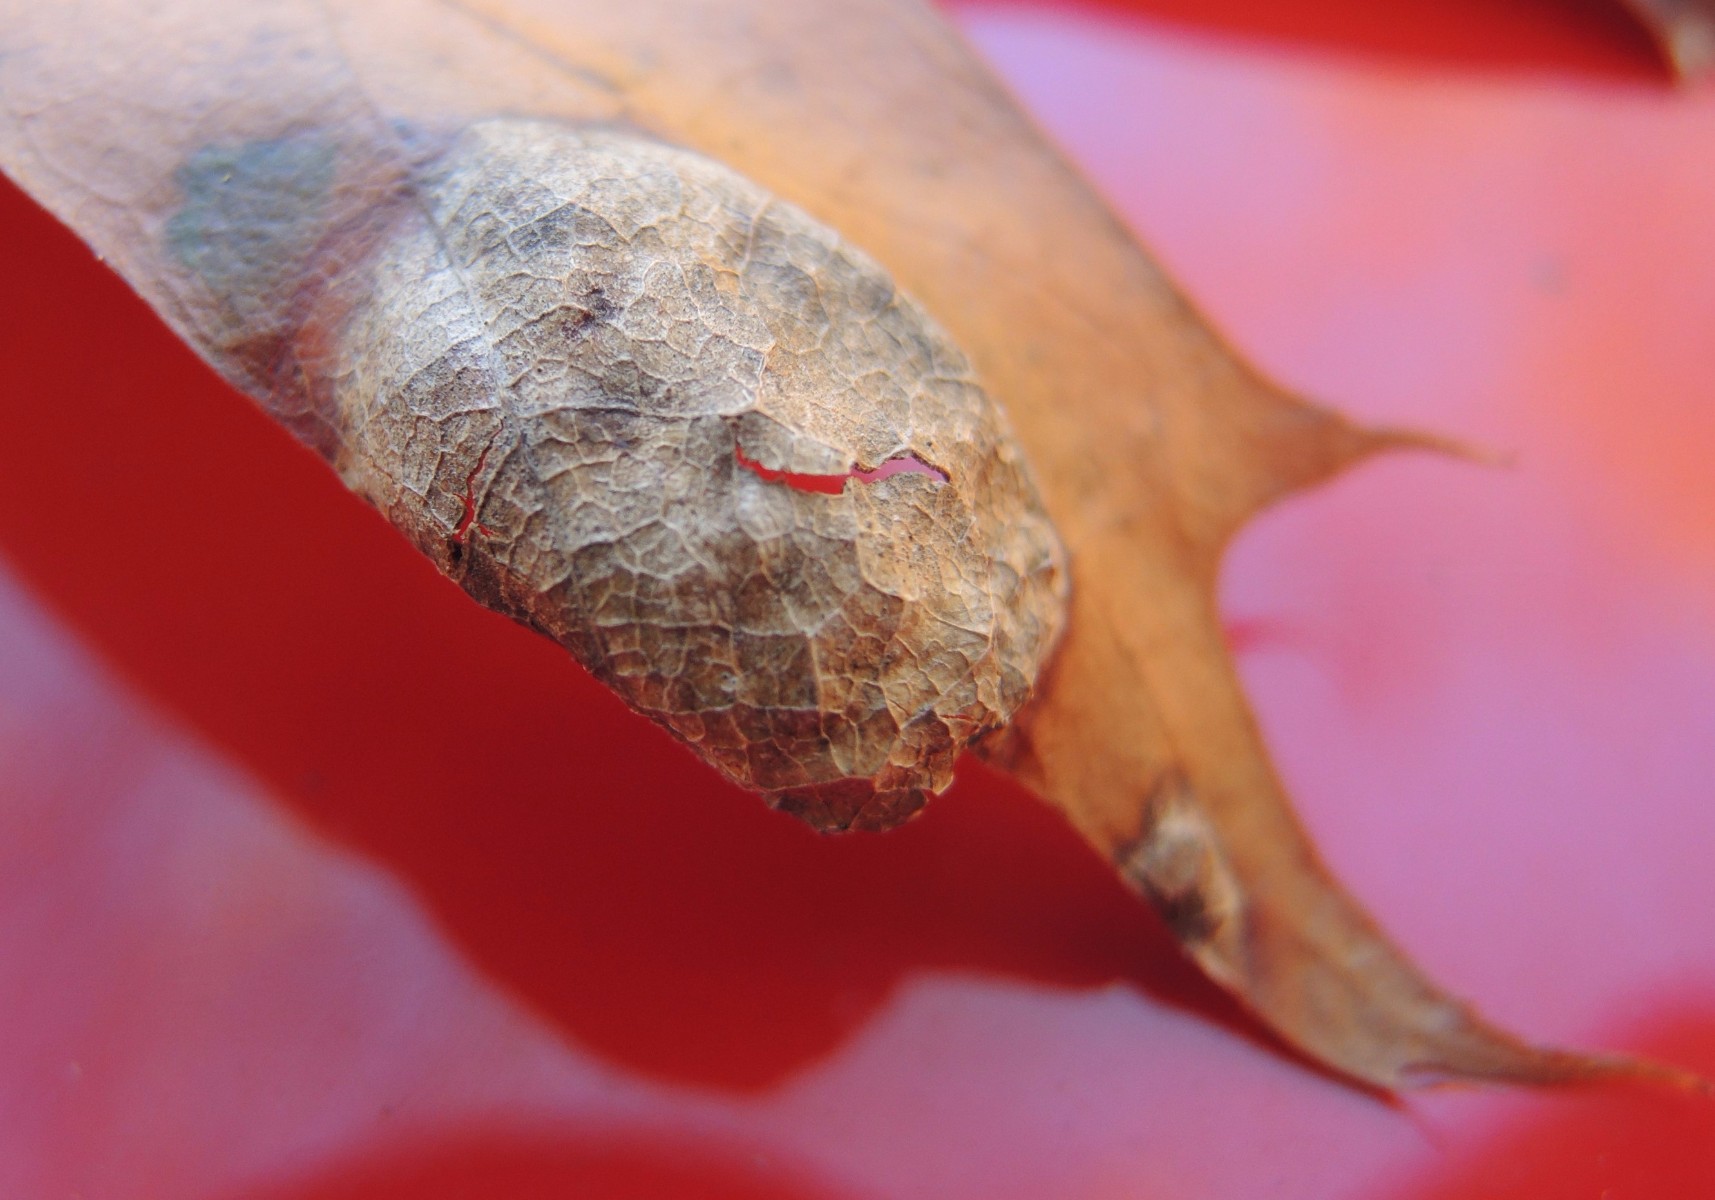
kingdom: Fungi
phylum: Ascomycota
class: Taphrinomycetes
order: Taphrinales
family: Taphrinaceae
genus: Taphrina
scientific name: Taphrina caerulescens
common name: Oak leaf blister
